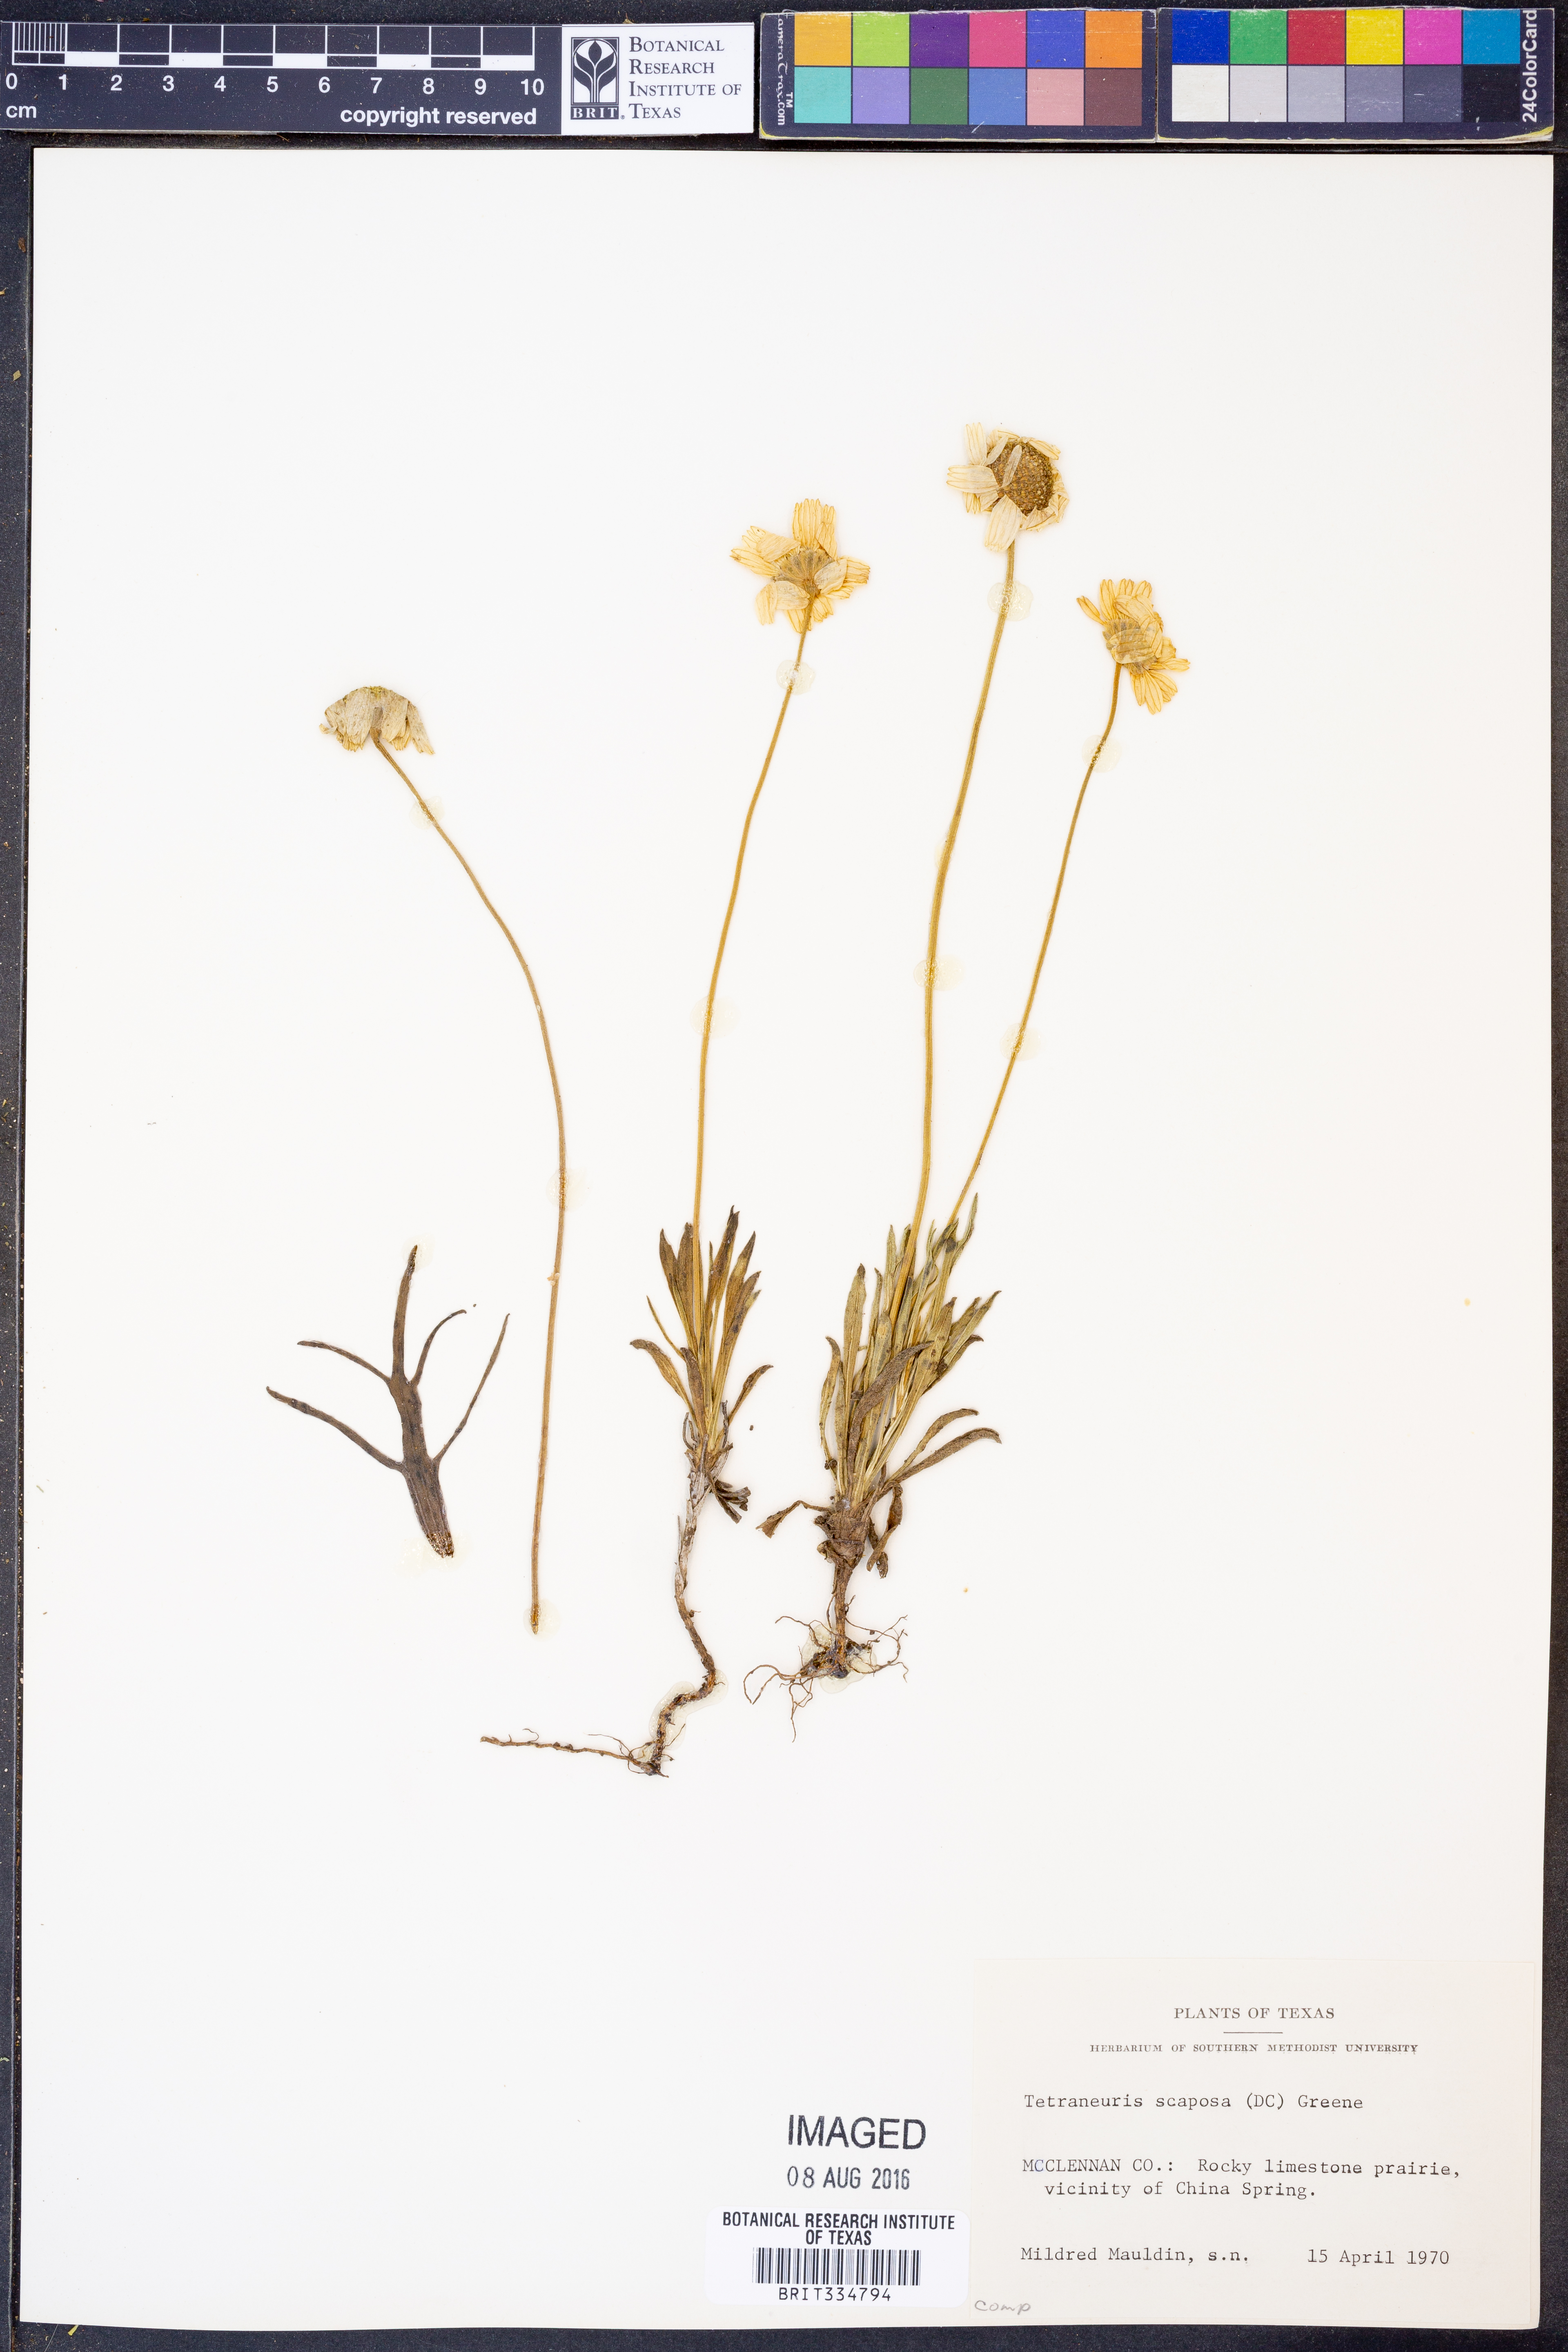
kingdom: Plantae
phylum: Tracheophyta
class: Magnoliopsida
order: Asterales
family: Asteraceae
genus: Tetraneuris
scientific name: Tetraneuris scaposa
